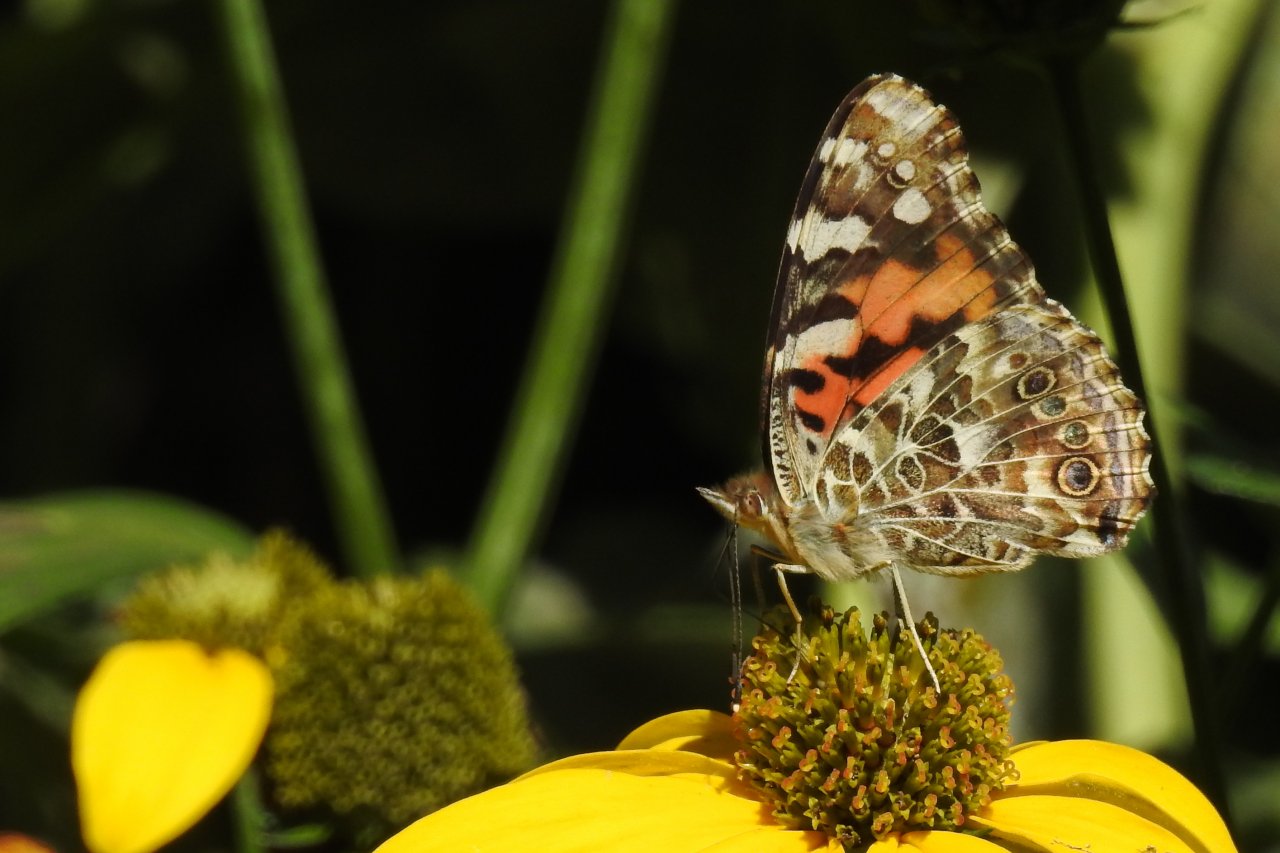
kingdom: Animalia
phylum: Arthropoda
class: Insecta
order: Lepidoptera
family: Nymphalidae
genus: Vanessa
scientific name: Vanessa cardui
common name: Painted Lady
